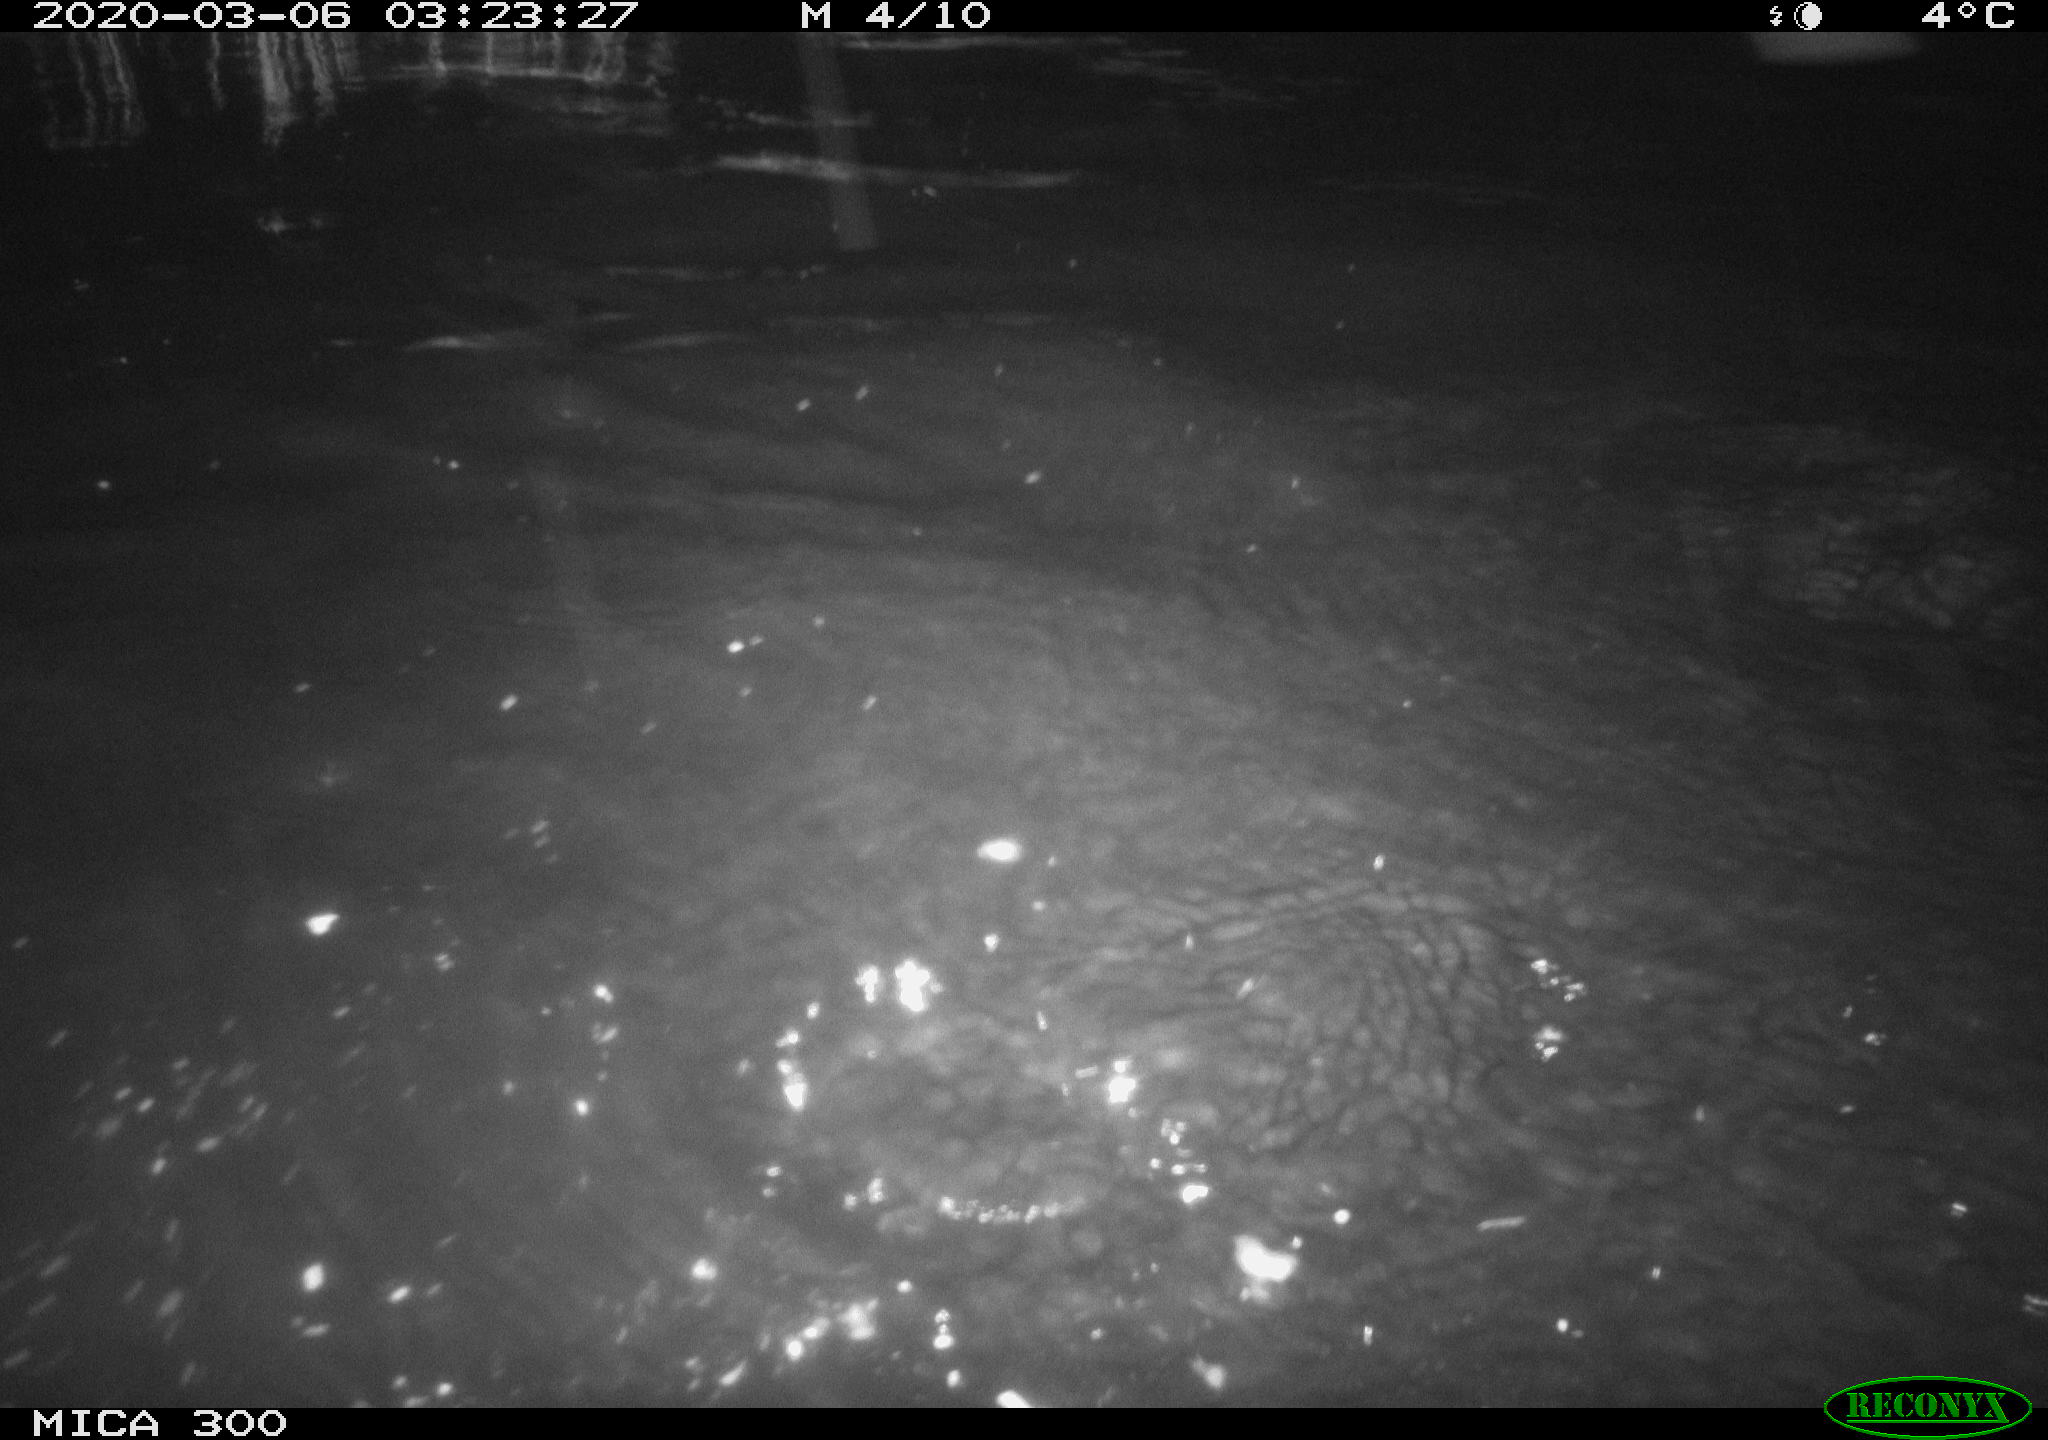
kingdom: Animalia
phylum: Chordata
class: Mammalia
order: Rodentia
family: Castoridae
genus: Castor
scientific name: Castor fiber
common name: Eurasian beaver
